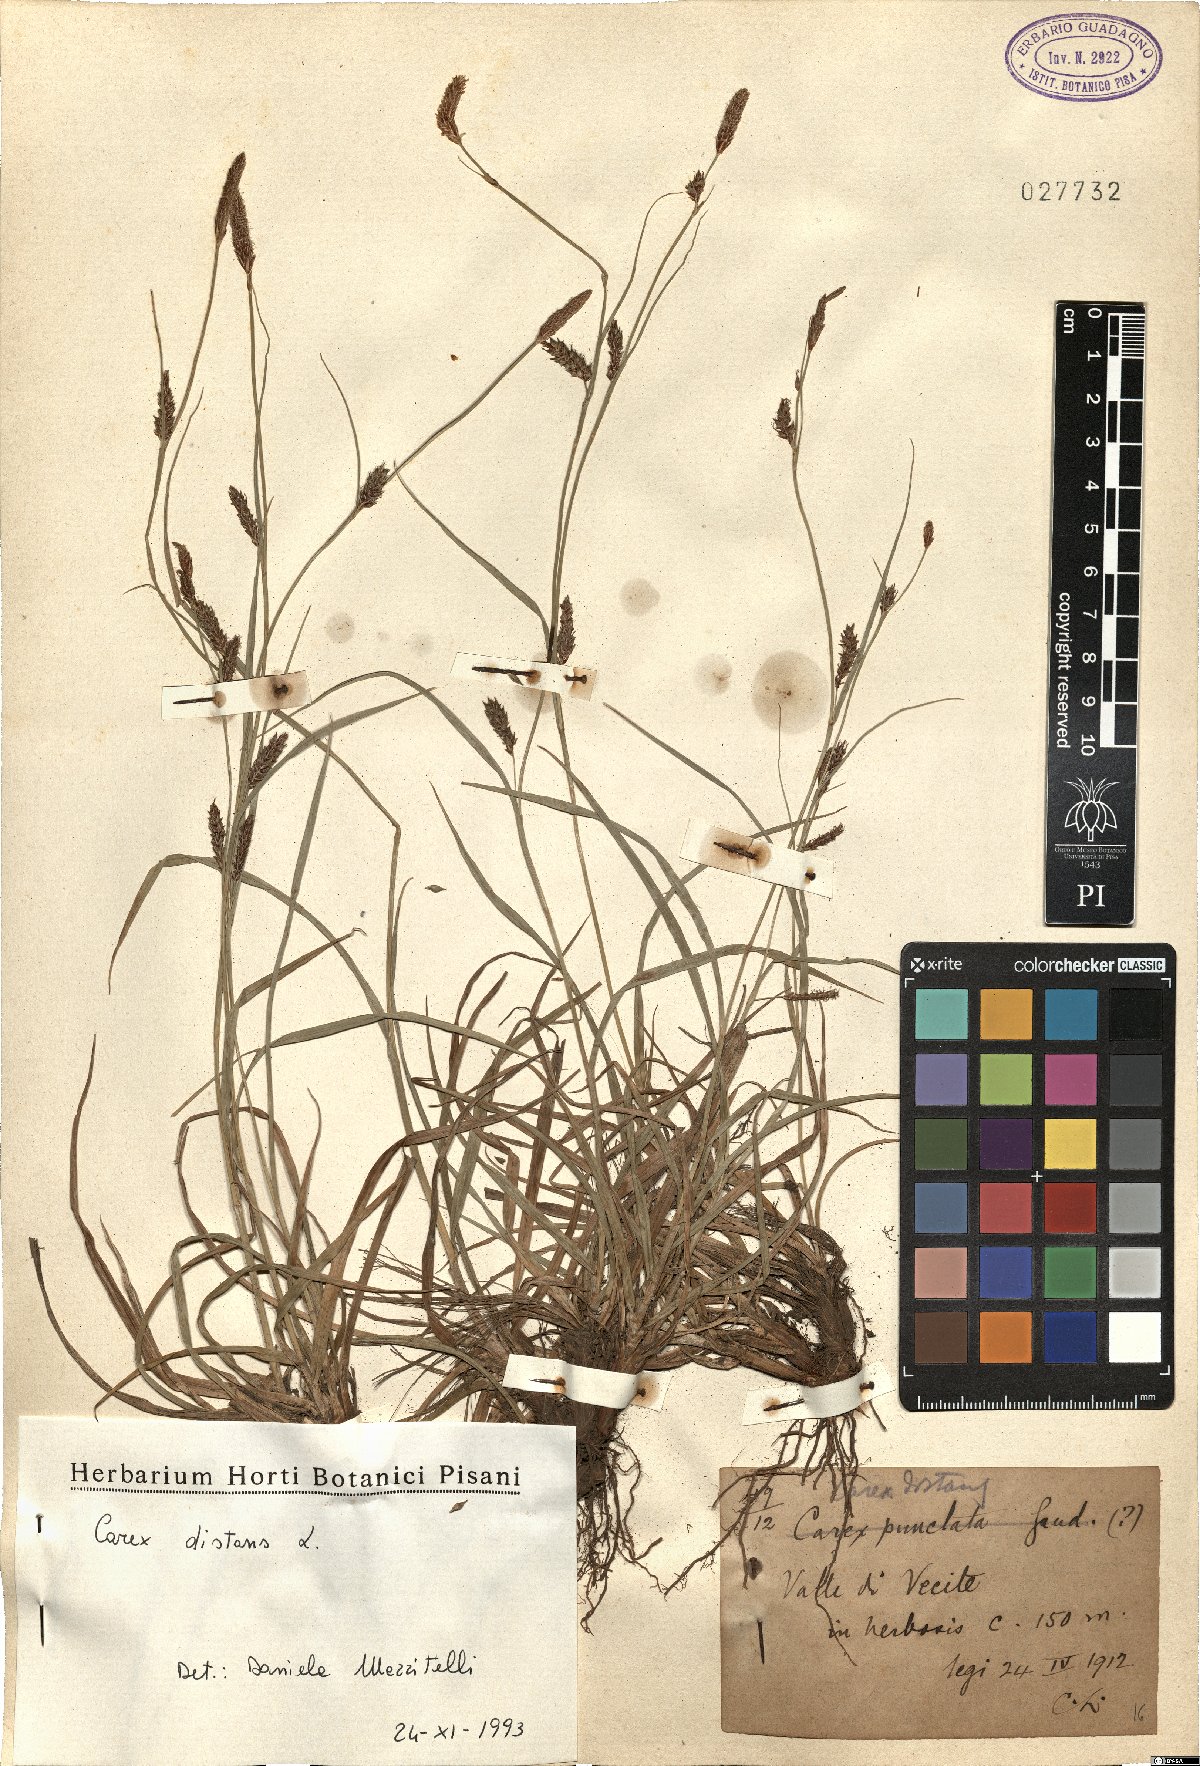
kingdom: Plantae
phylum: Tracheophyta
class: Liliopsida
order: Poales
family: Cyperaceae
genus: Carex
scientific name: Carex distans
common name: Distant sedge
